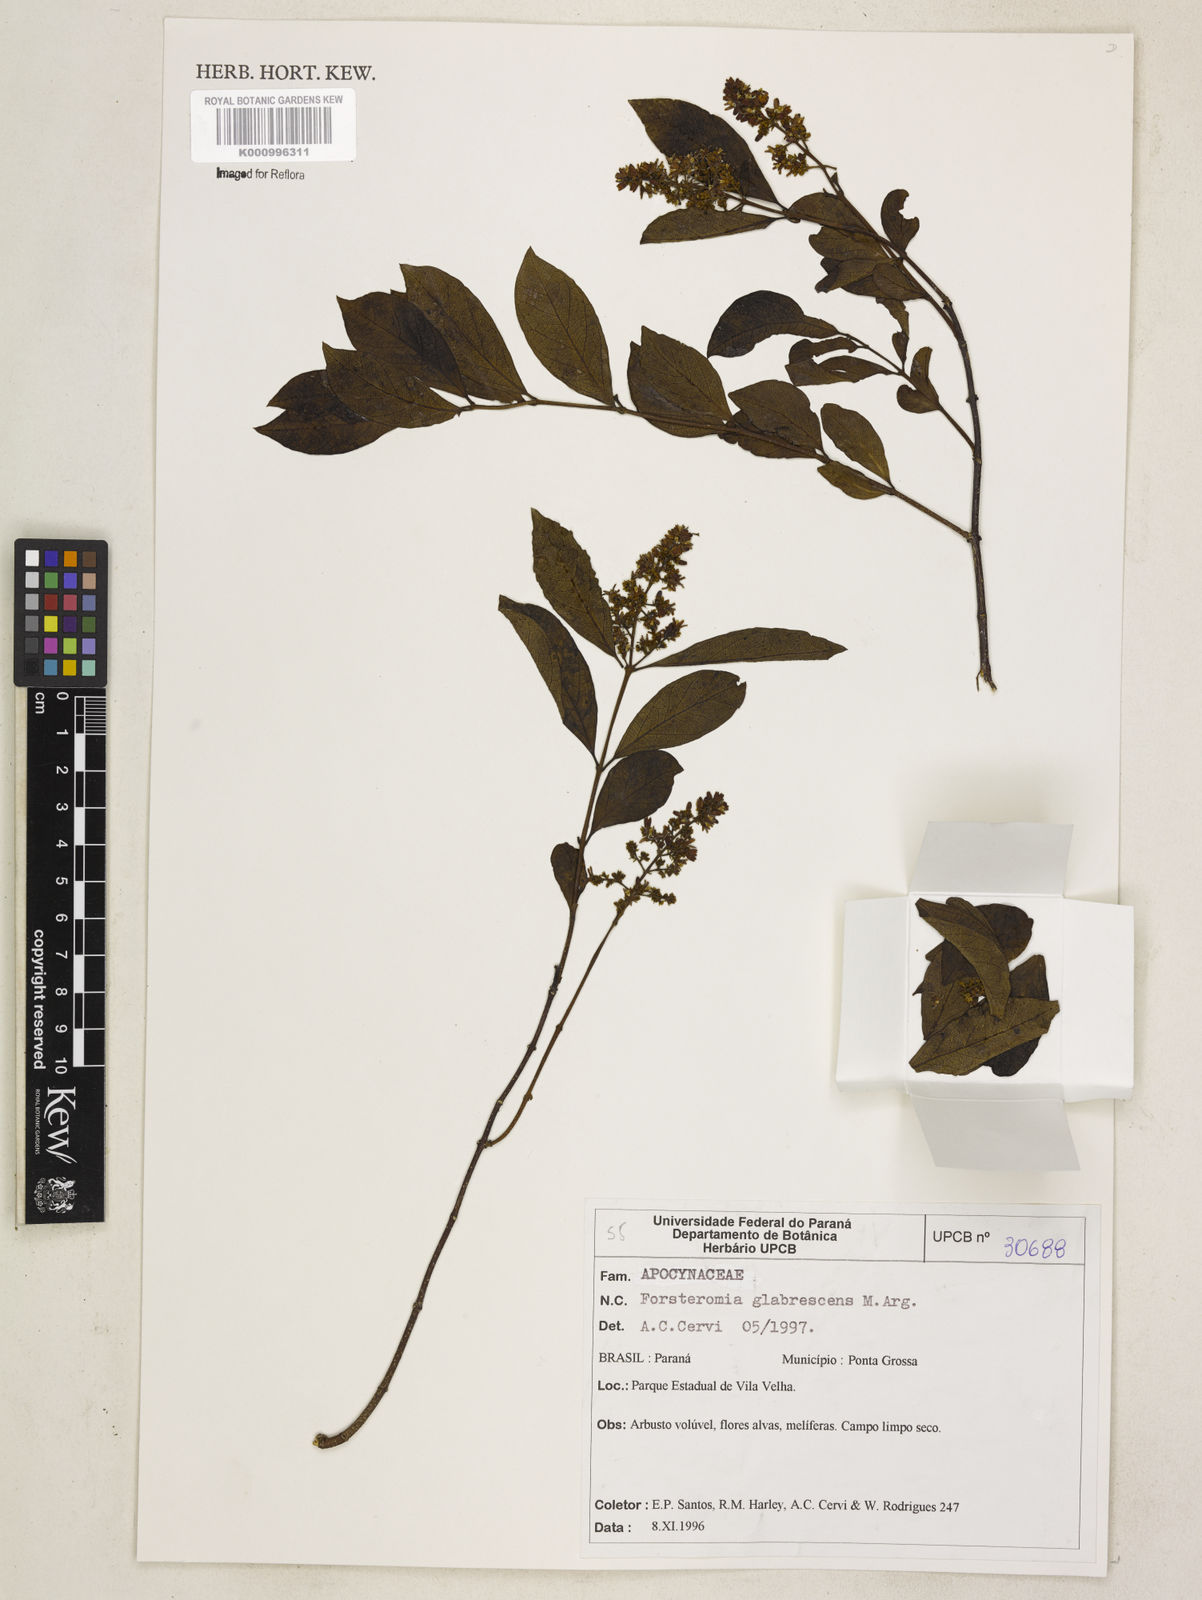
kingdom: Plantae
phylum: Tracheophyta
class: Magnoliopsida
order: Gentianales
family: Apocynaceae
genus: Forsteronia
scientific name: Forsteronia
